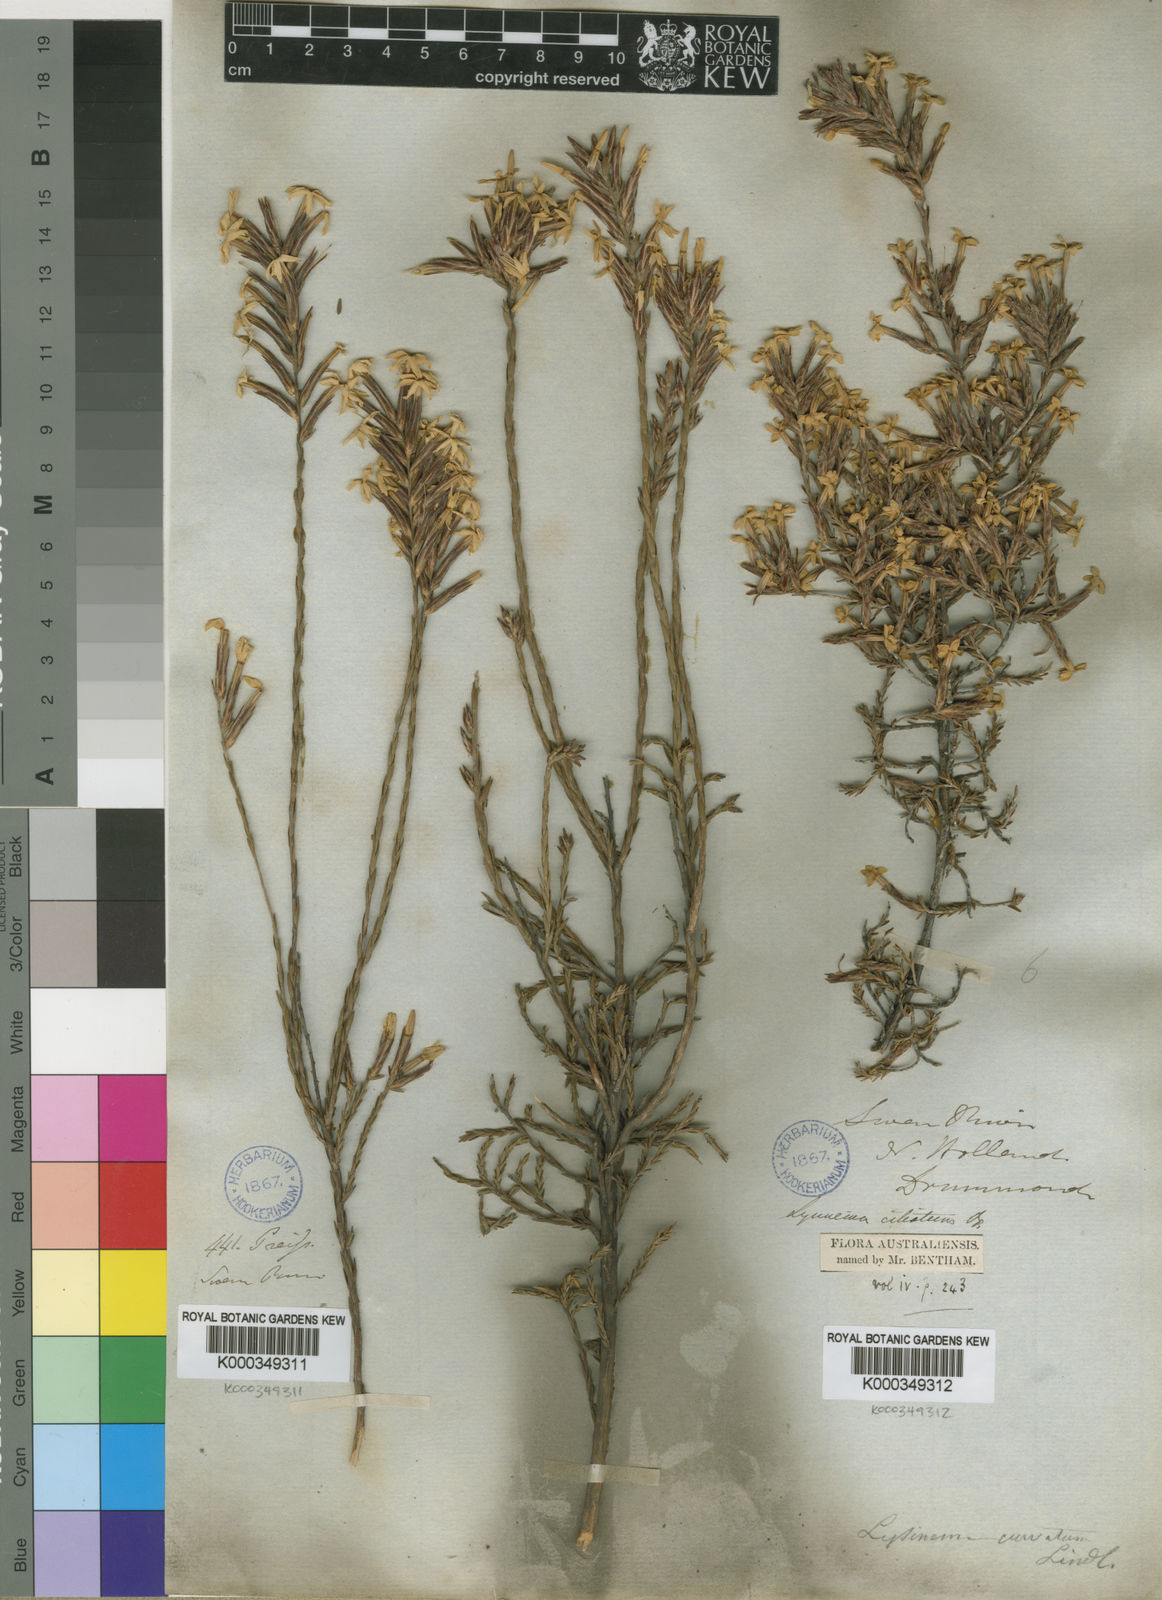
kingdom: Plantae
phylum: Tracheophyta
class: Magnoliopsida
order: Ericales
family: Ericaceae
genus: Lysinema
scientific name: Lysinema
